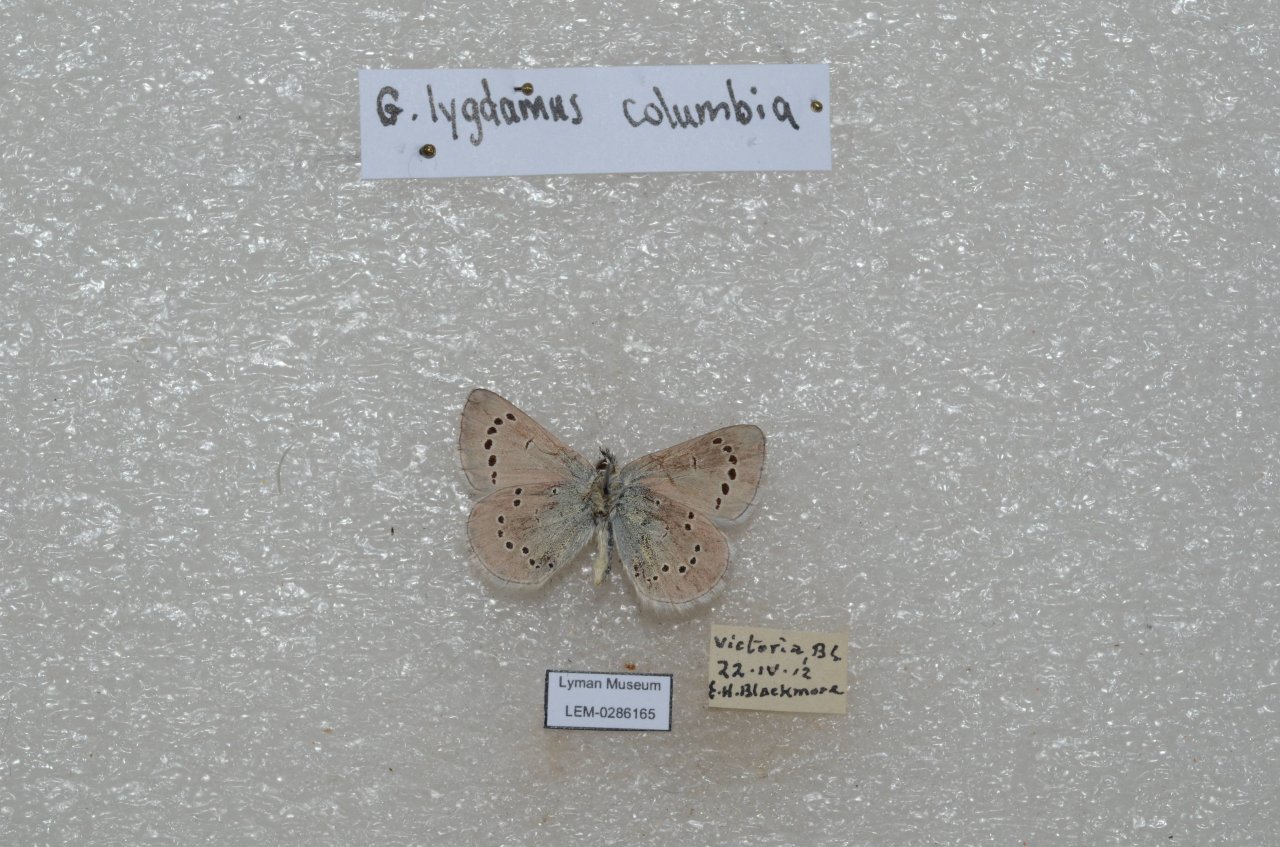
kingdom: Animalia
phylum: Arthropoda
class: Insecta
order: Lepidoptera
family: Lycaenidae
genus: Glaucopsyche
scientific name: Glaucopsyche lygdamus
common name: Silvery Blue
